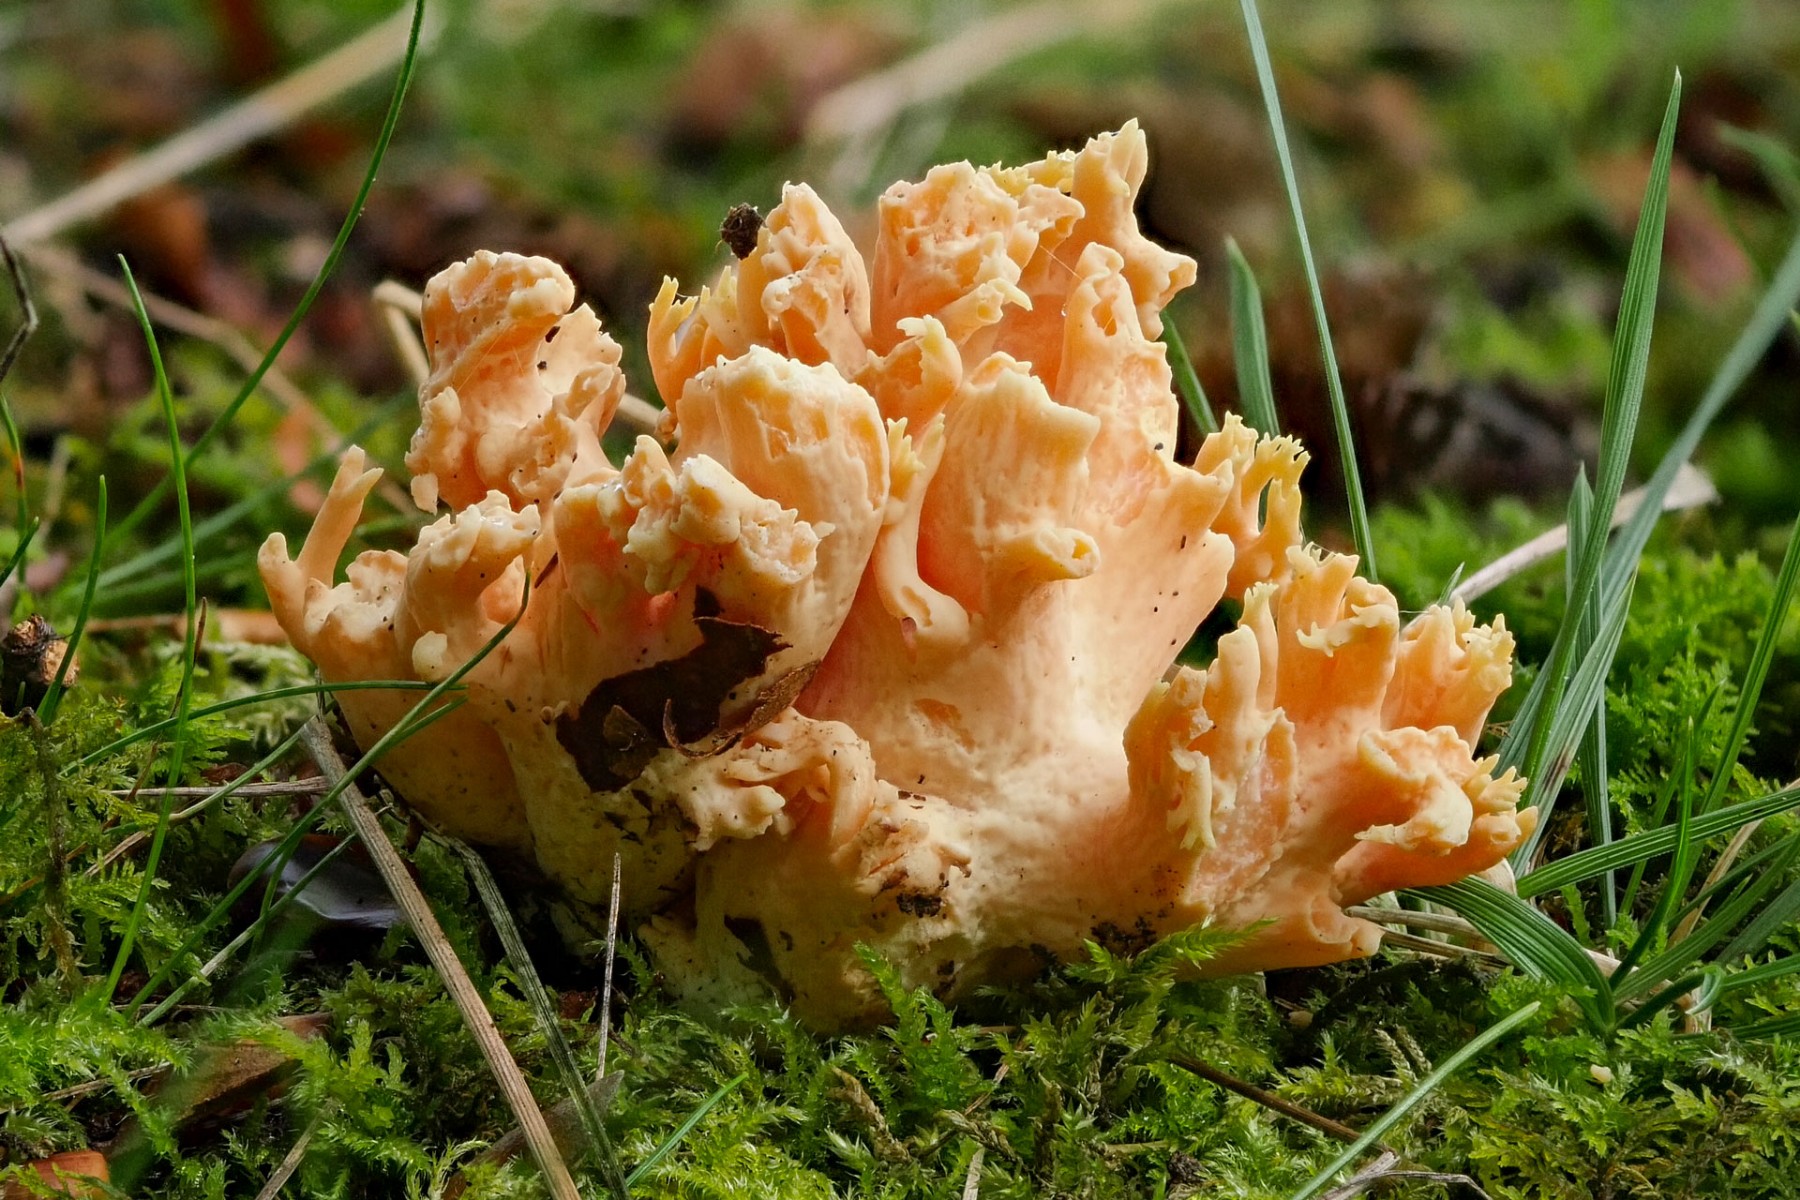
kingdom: Fungi
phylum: Basidiomycota
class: Agaricomycetes
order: Gomphales
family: Gomphaceae
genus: Ramaria
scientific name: Ramaria fagetorum
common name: abrikos-koralsvamp
